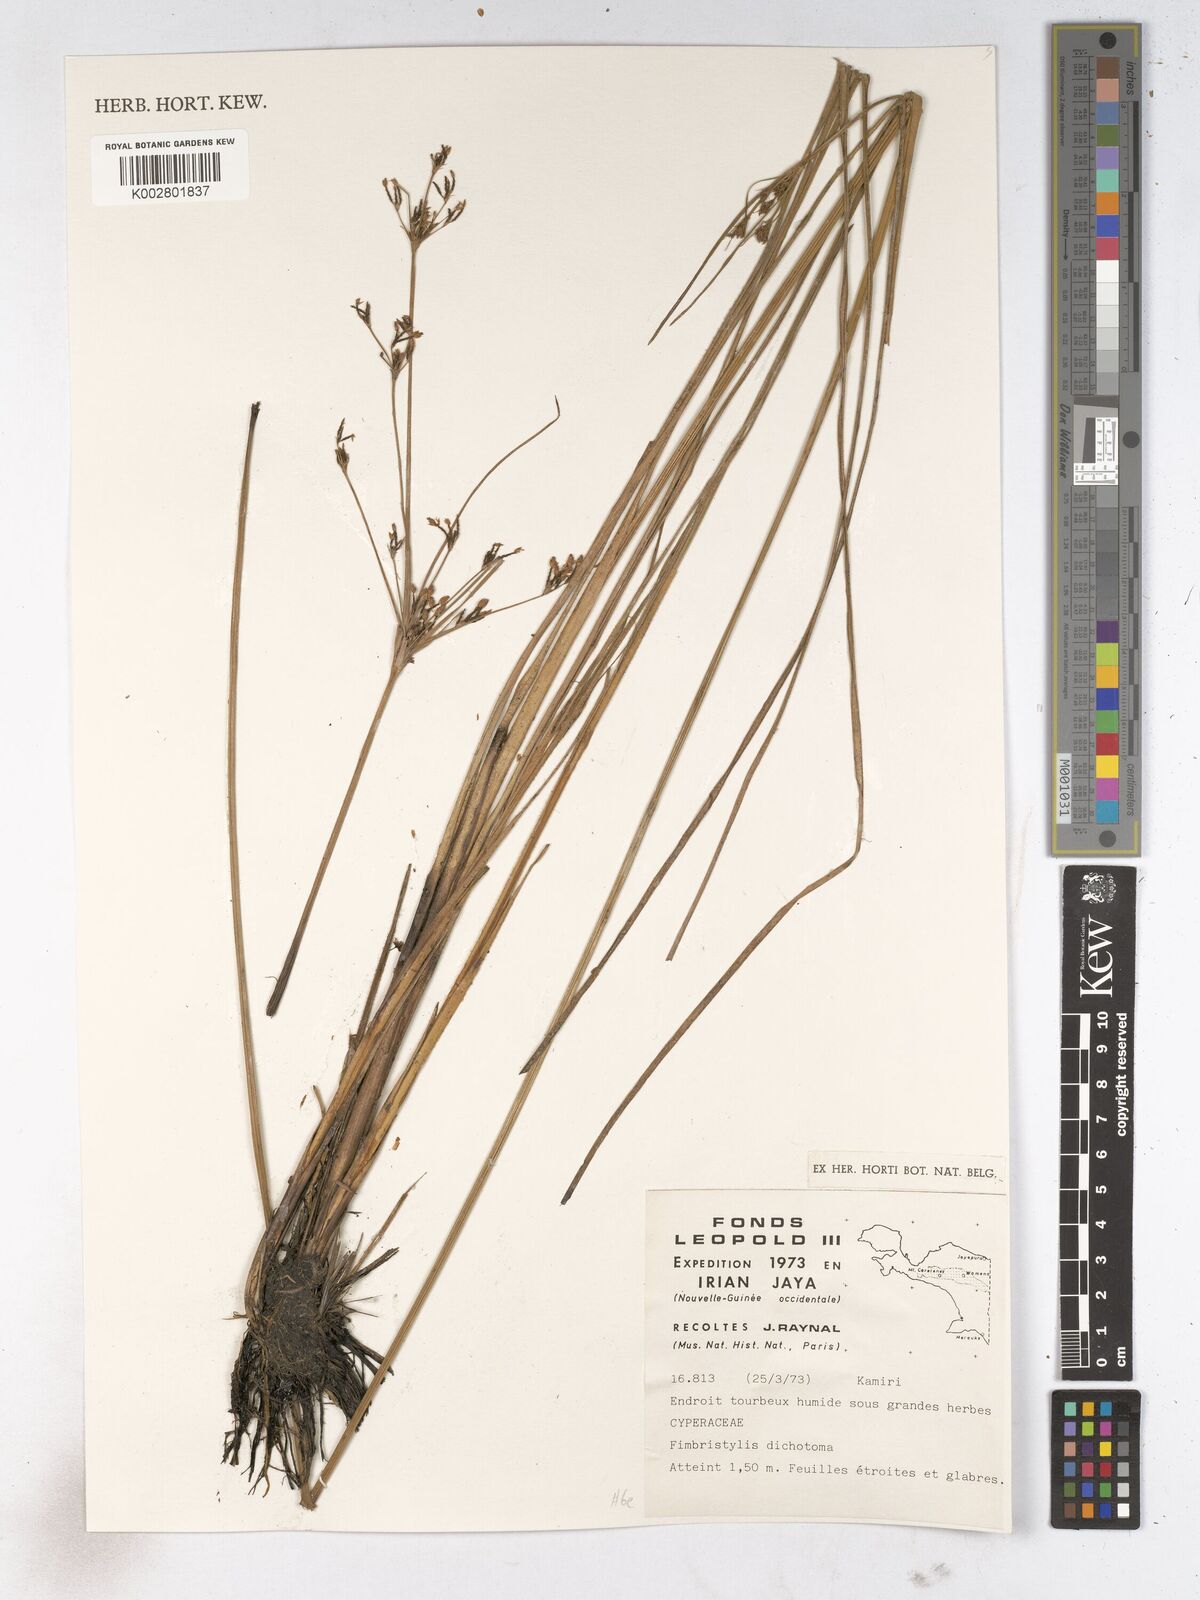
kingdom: Plantae
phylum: Tracheophyta
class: Liliopsida
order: Poales
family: Cyperaceae
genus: Fimbristylis
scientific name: Fimbristylis dichotoma
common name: Forked fimbry
